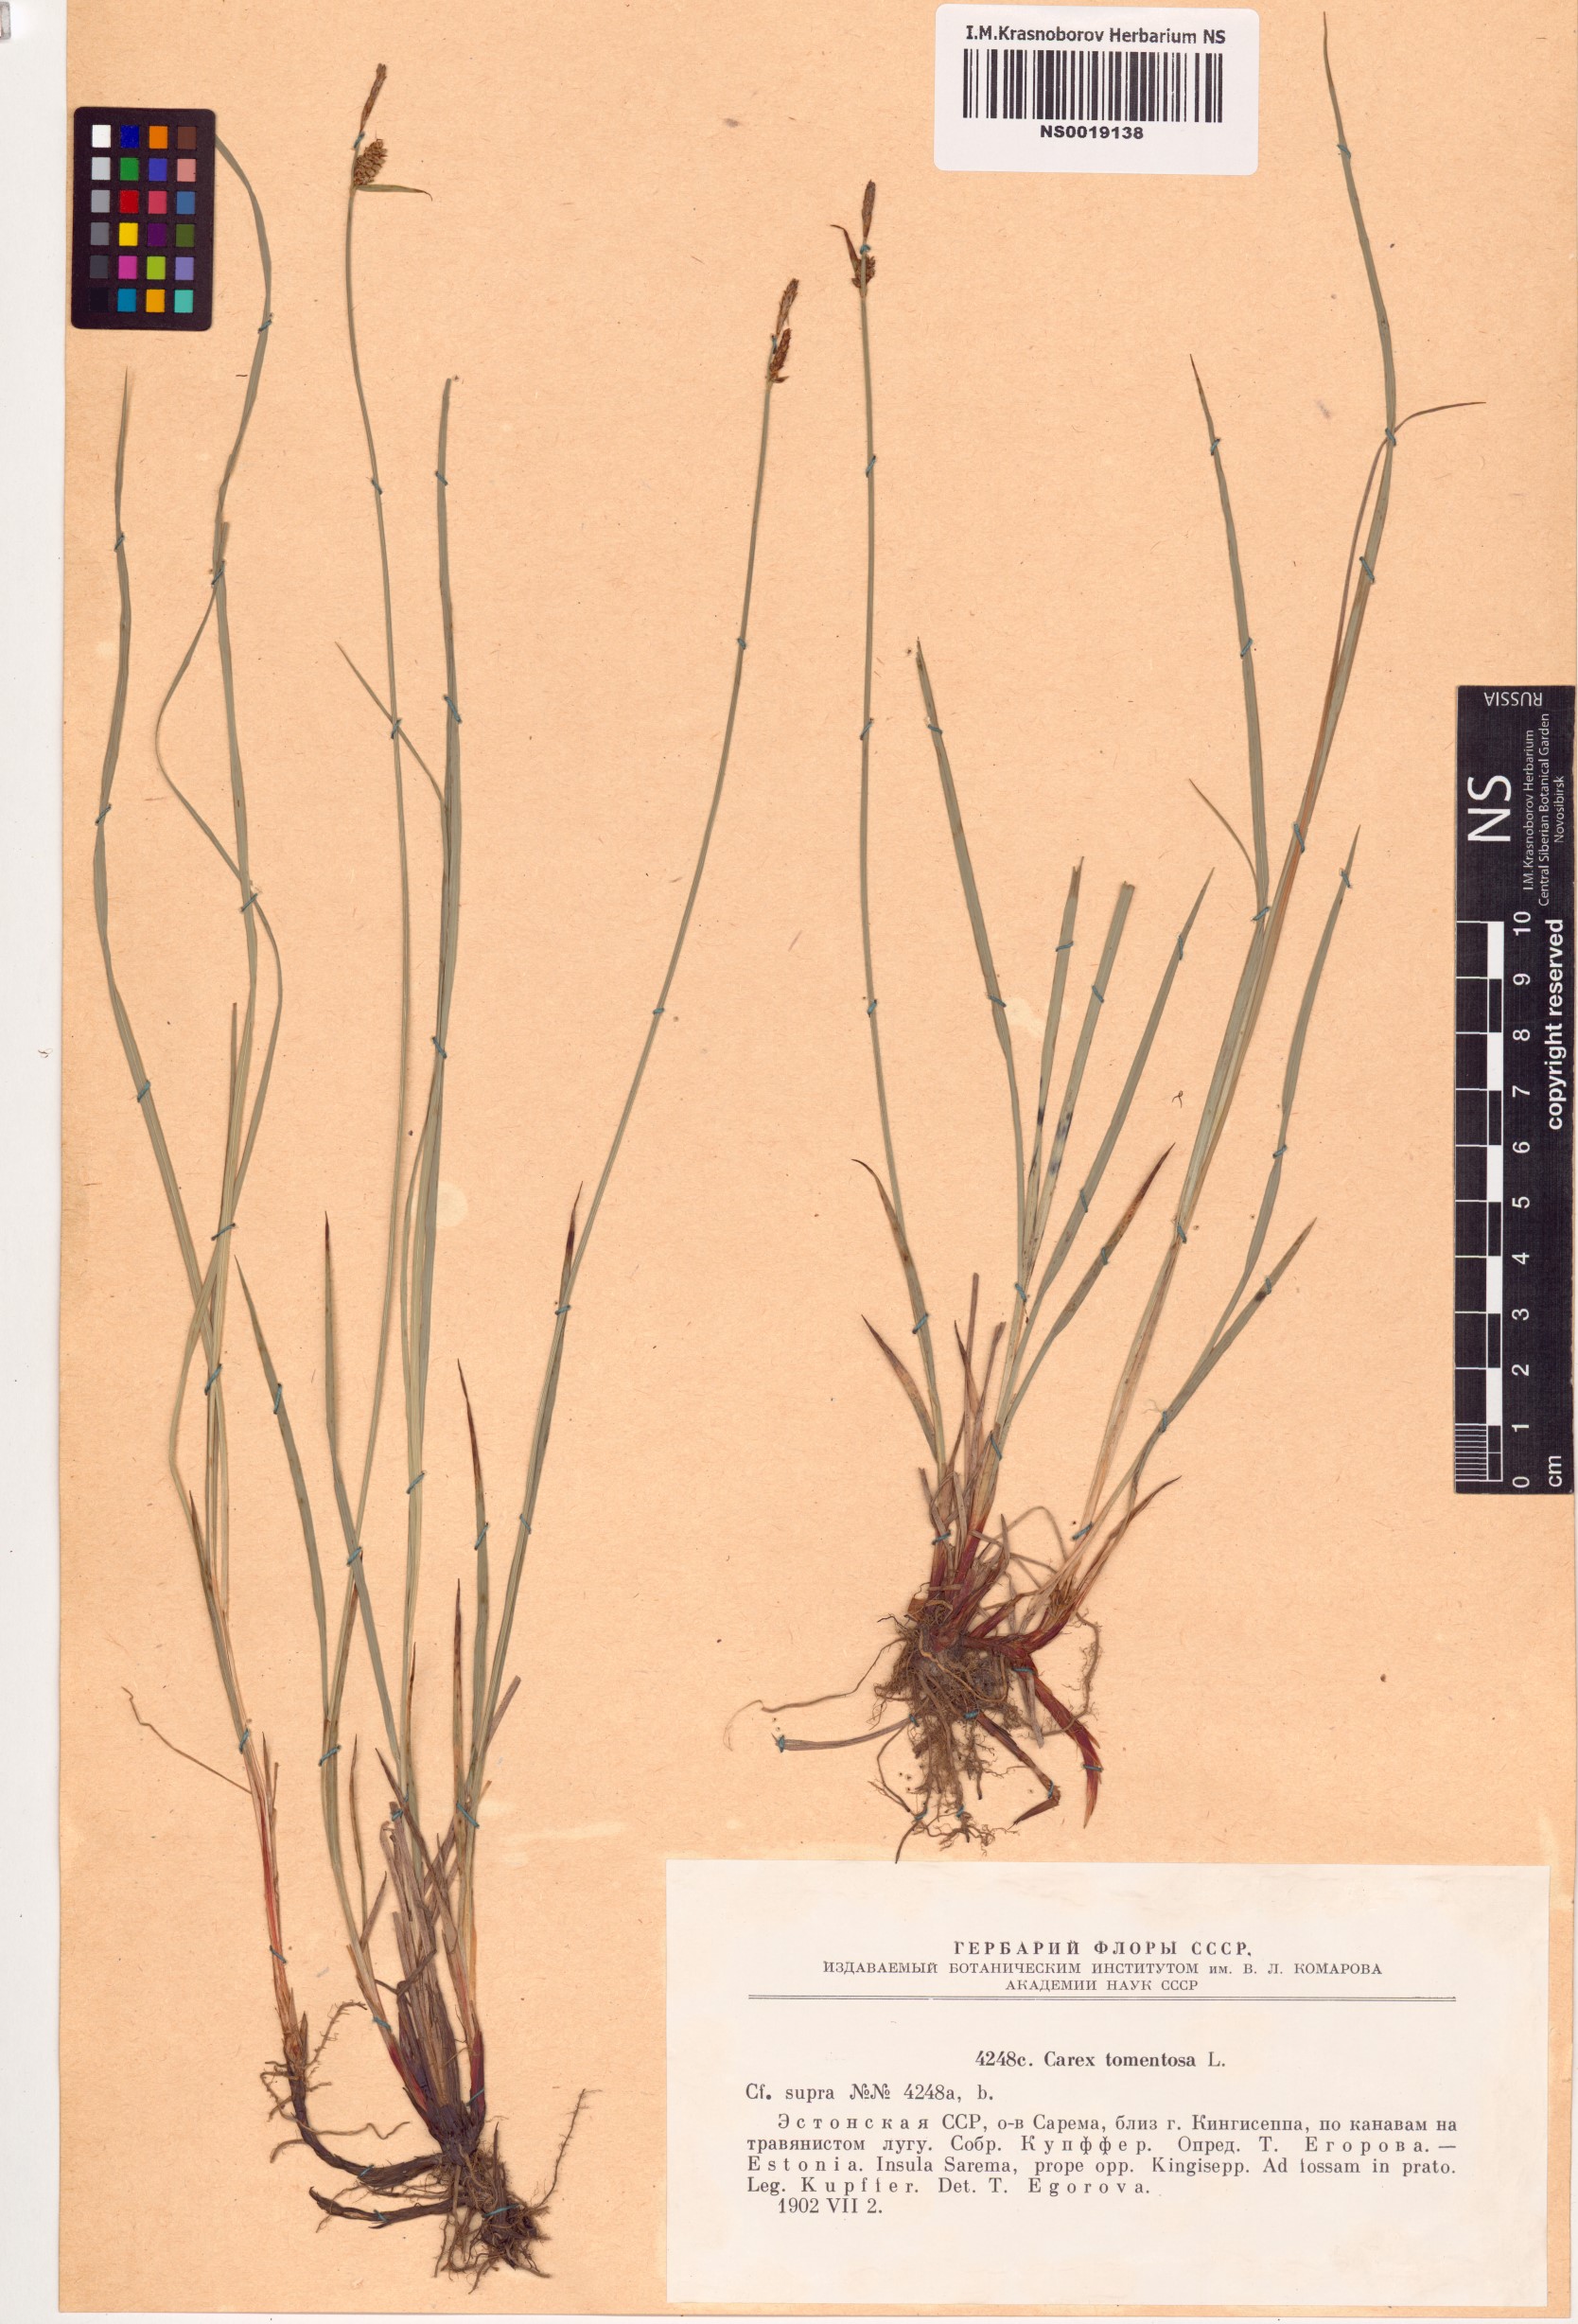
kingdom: Plantae
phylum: Tracheophyta
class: Liliopsida
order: Poales
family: Cyperaceae
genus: Carex
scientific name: Carex tomentosa
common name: Downy-fruited sedge
